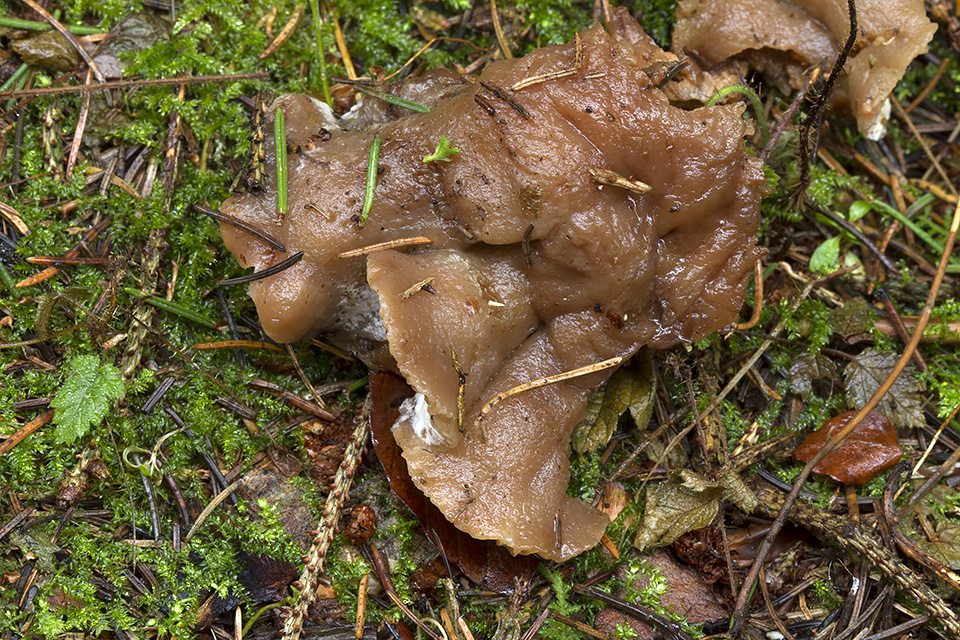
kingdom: Fungi
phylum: Ascomycota
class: Sordariomycetes
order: Hypocreales
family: Hypocreaceae
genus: Hypomyces
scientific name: Hypomyces
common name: snylteskorpe
